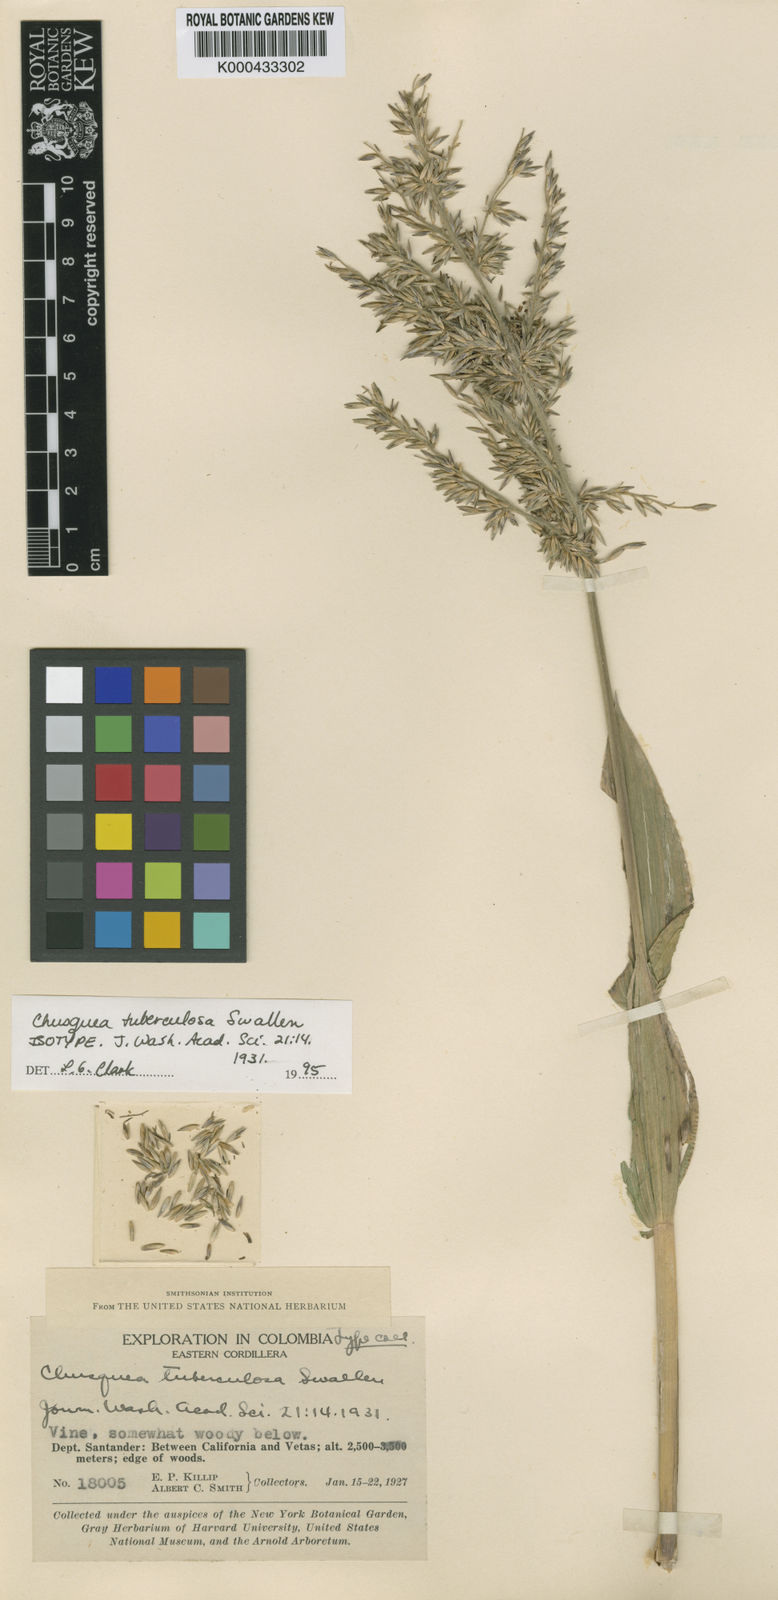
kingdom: Plantae
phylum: Tracheophyta
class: Liliopsida
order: Poales
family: Poaceae
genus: Chusquea
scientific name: Chusquea tuberculosa
